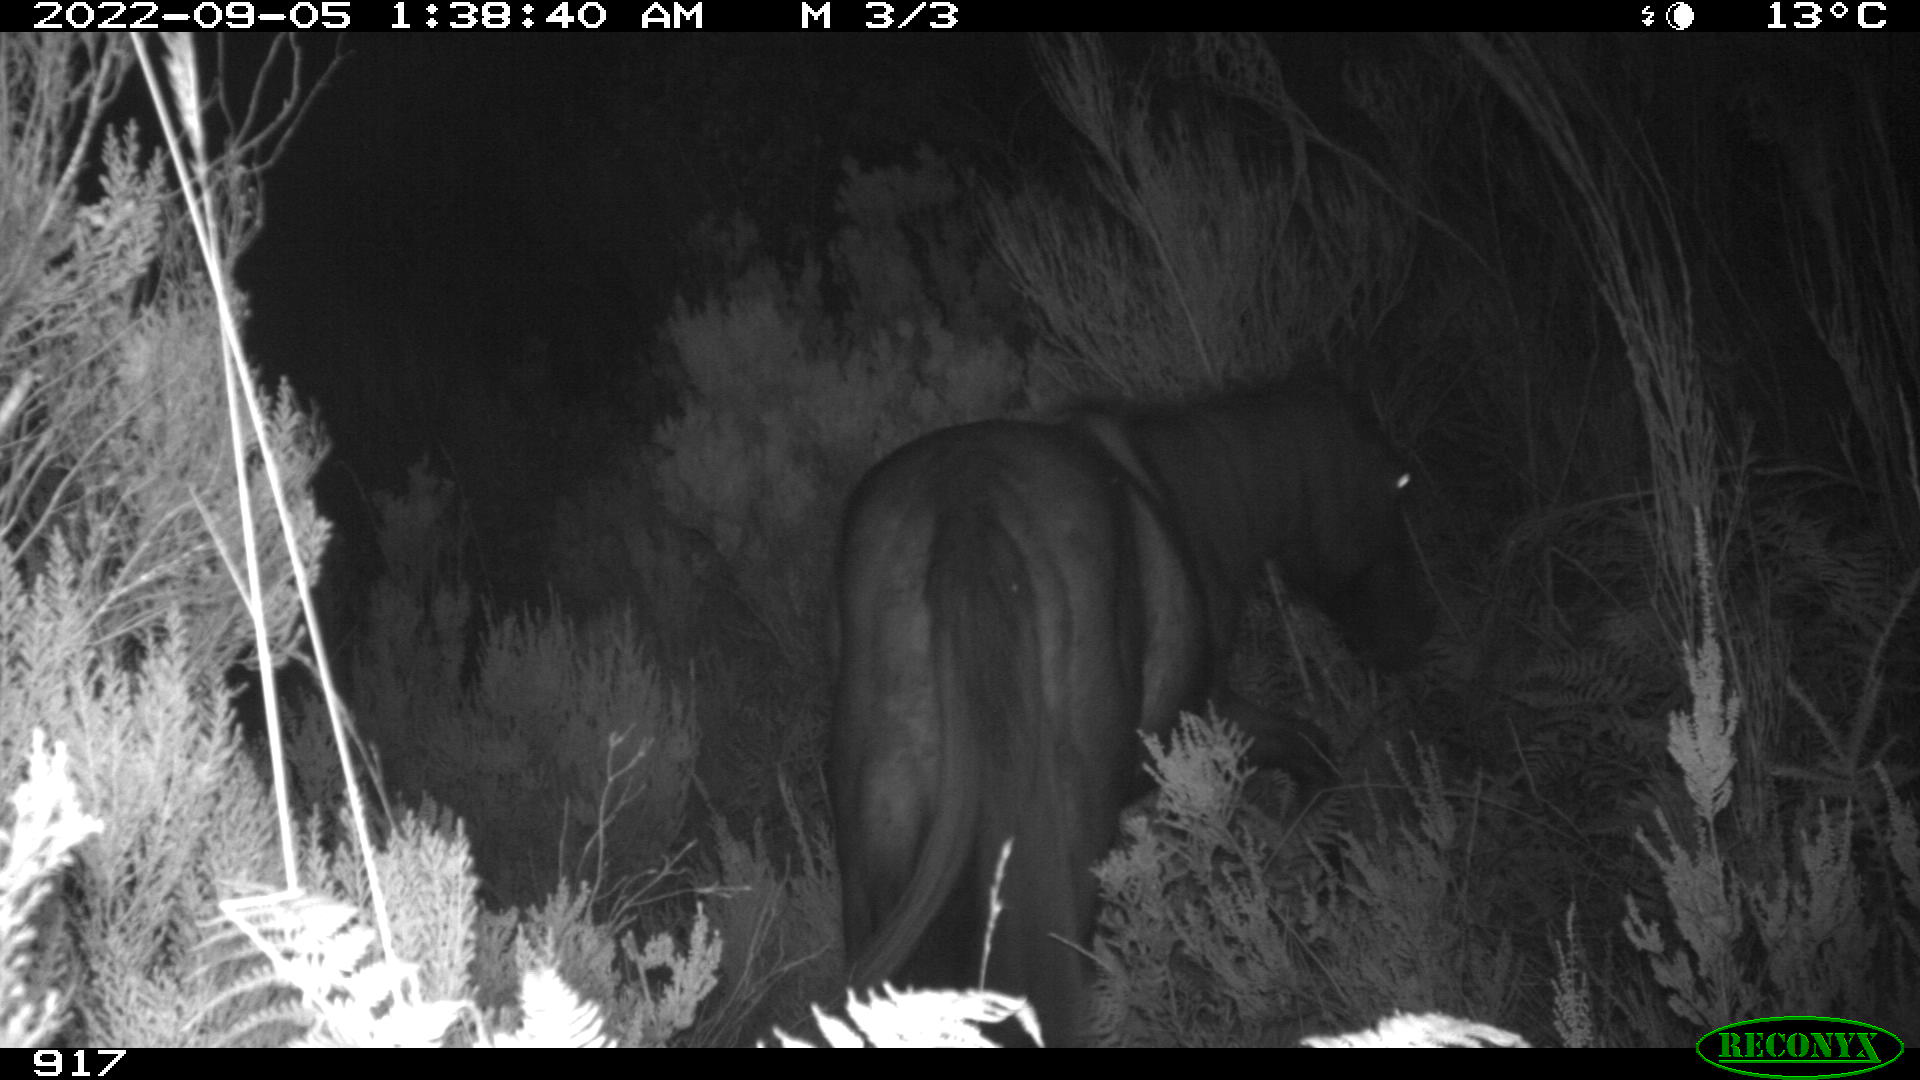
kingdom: Animalia
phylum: Chordata
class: Mammalia
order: Perissodactyla
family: Equidae
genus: Equus
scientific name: Equus caballus
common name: Horse
